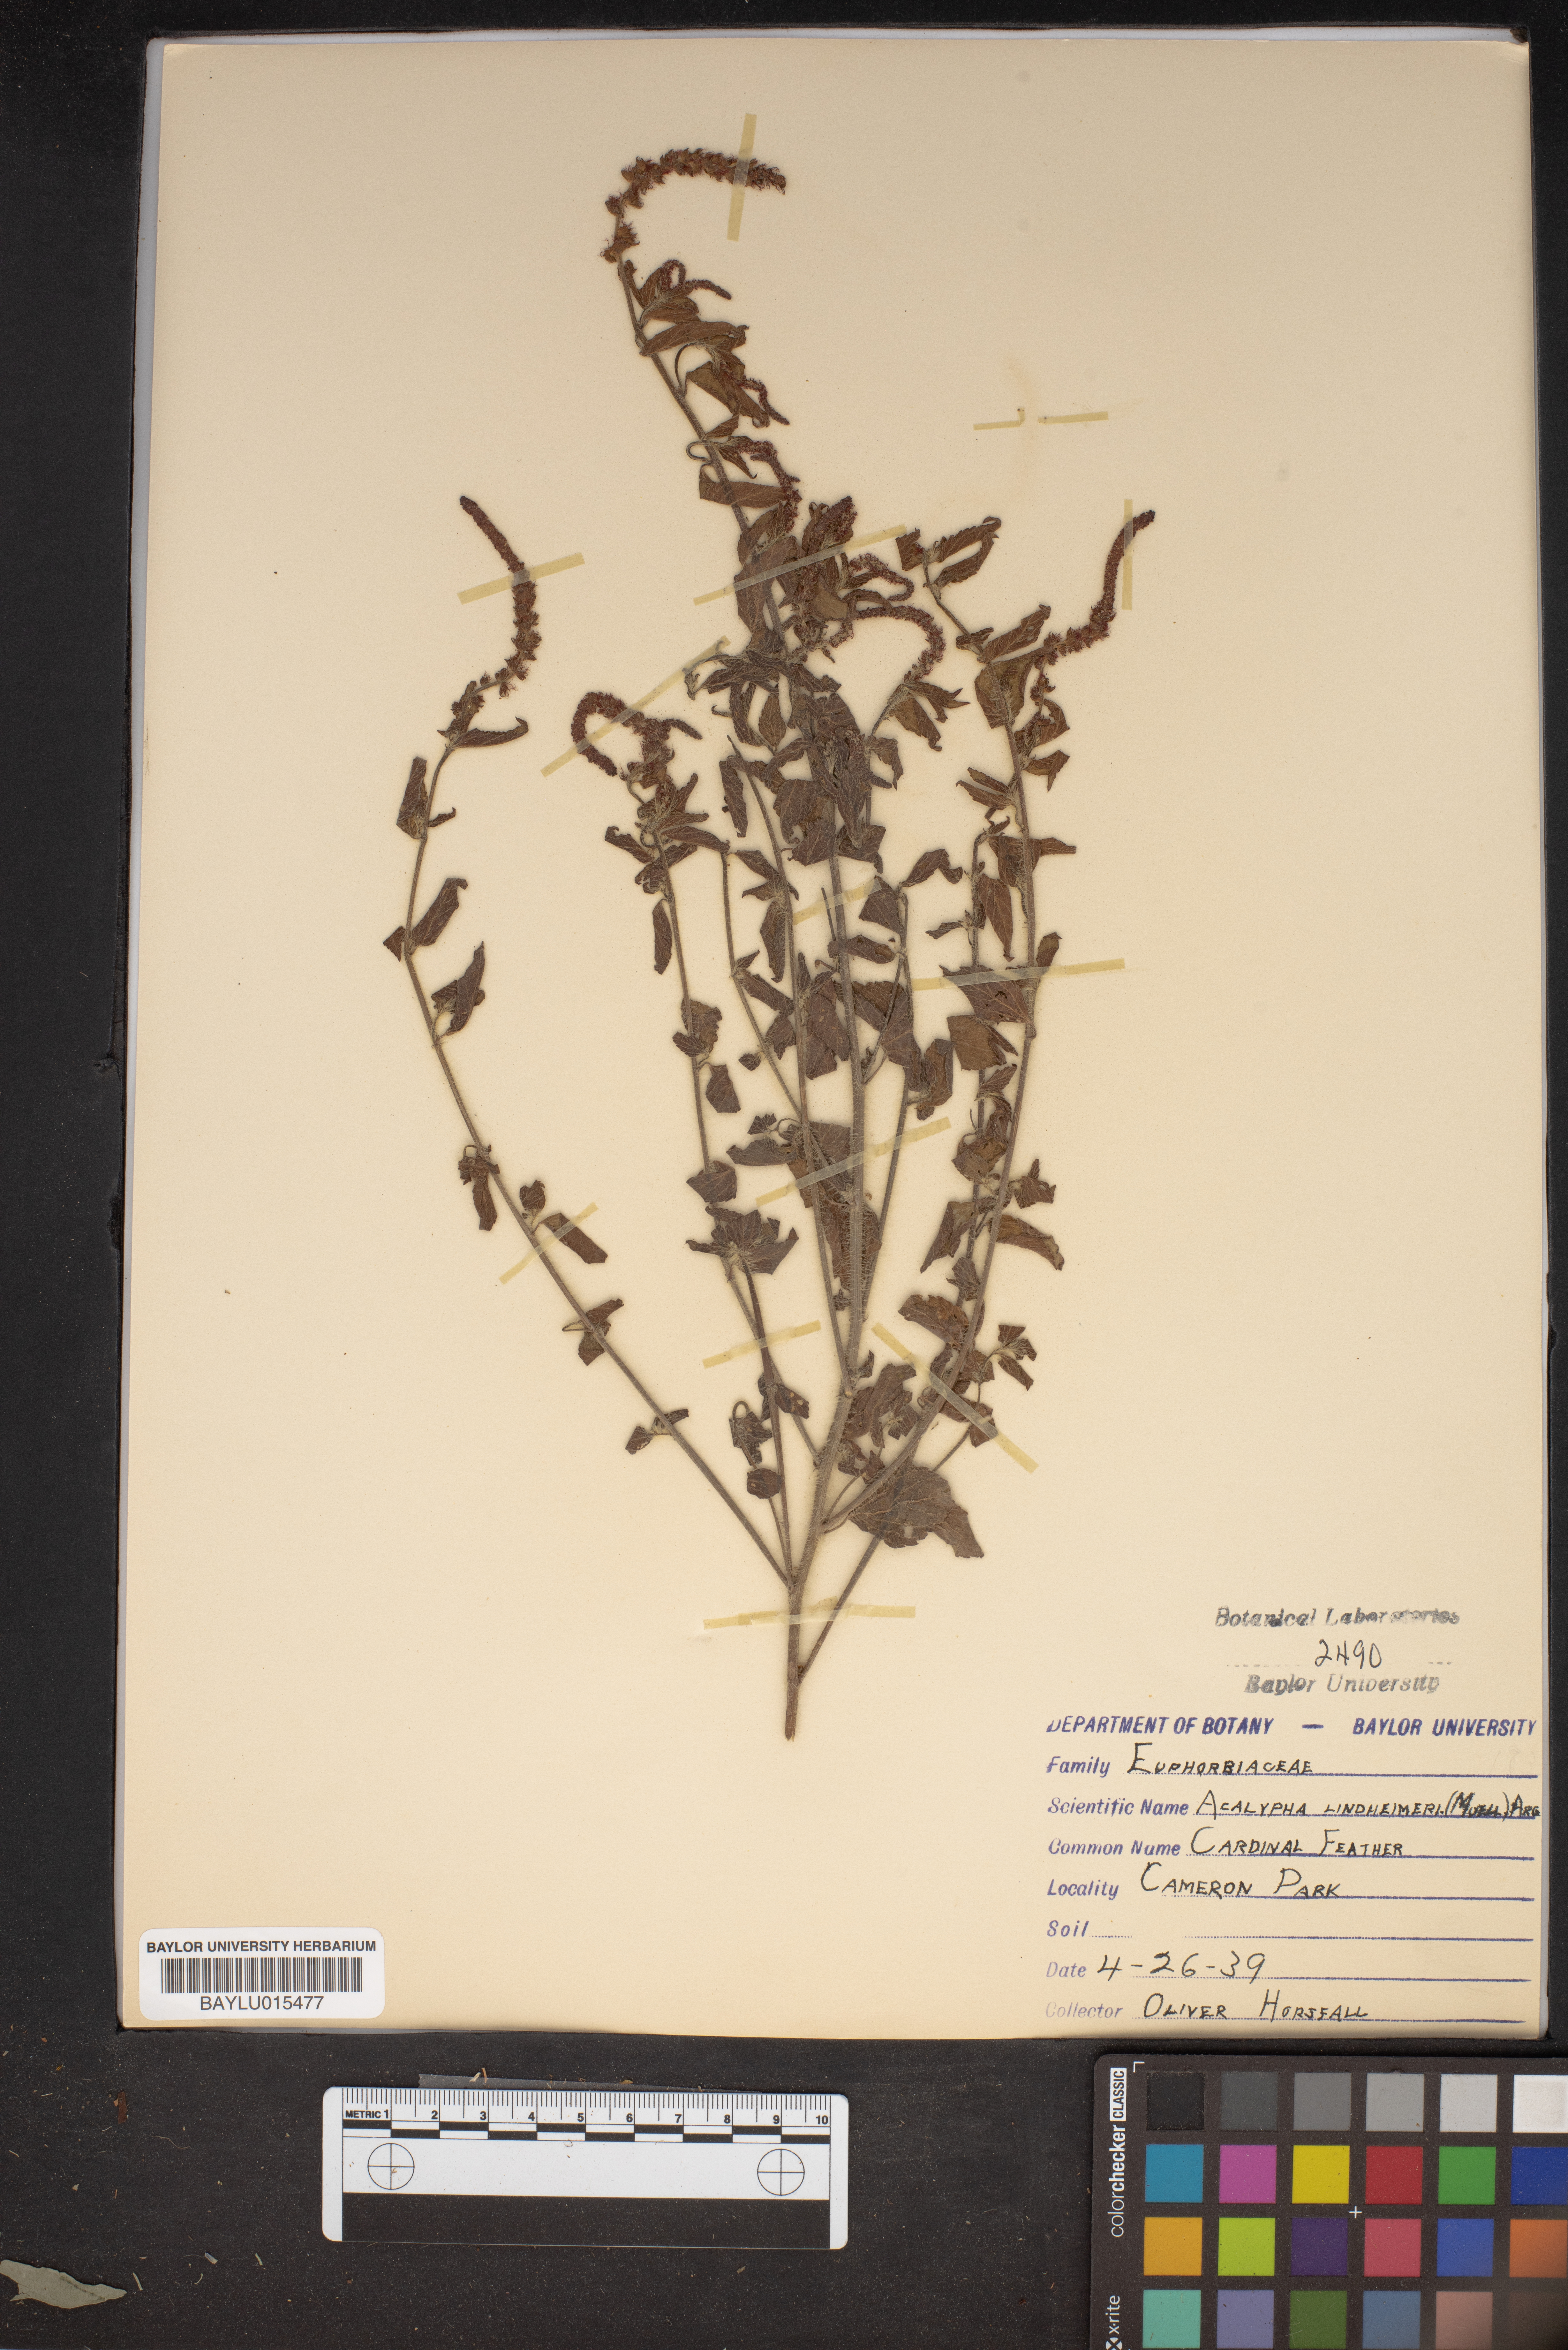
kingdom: Plantae
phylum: Tracheophyta
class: Magnoliopsida
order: Malpighiales
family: Euphorbiaceae
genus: Acalypha
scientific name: Acalypha phleoides
